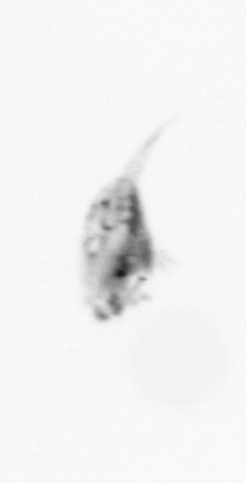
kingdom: Animalia
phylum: Arthropoda
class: Copepoda
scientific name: Copepoda
